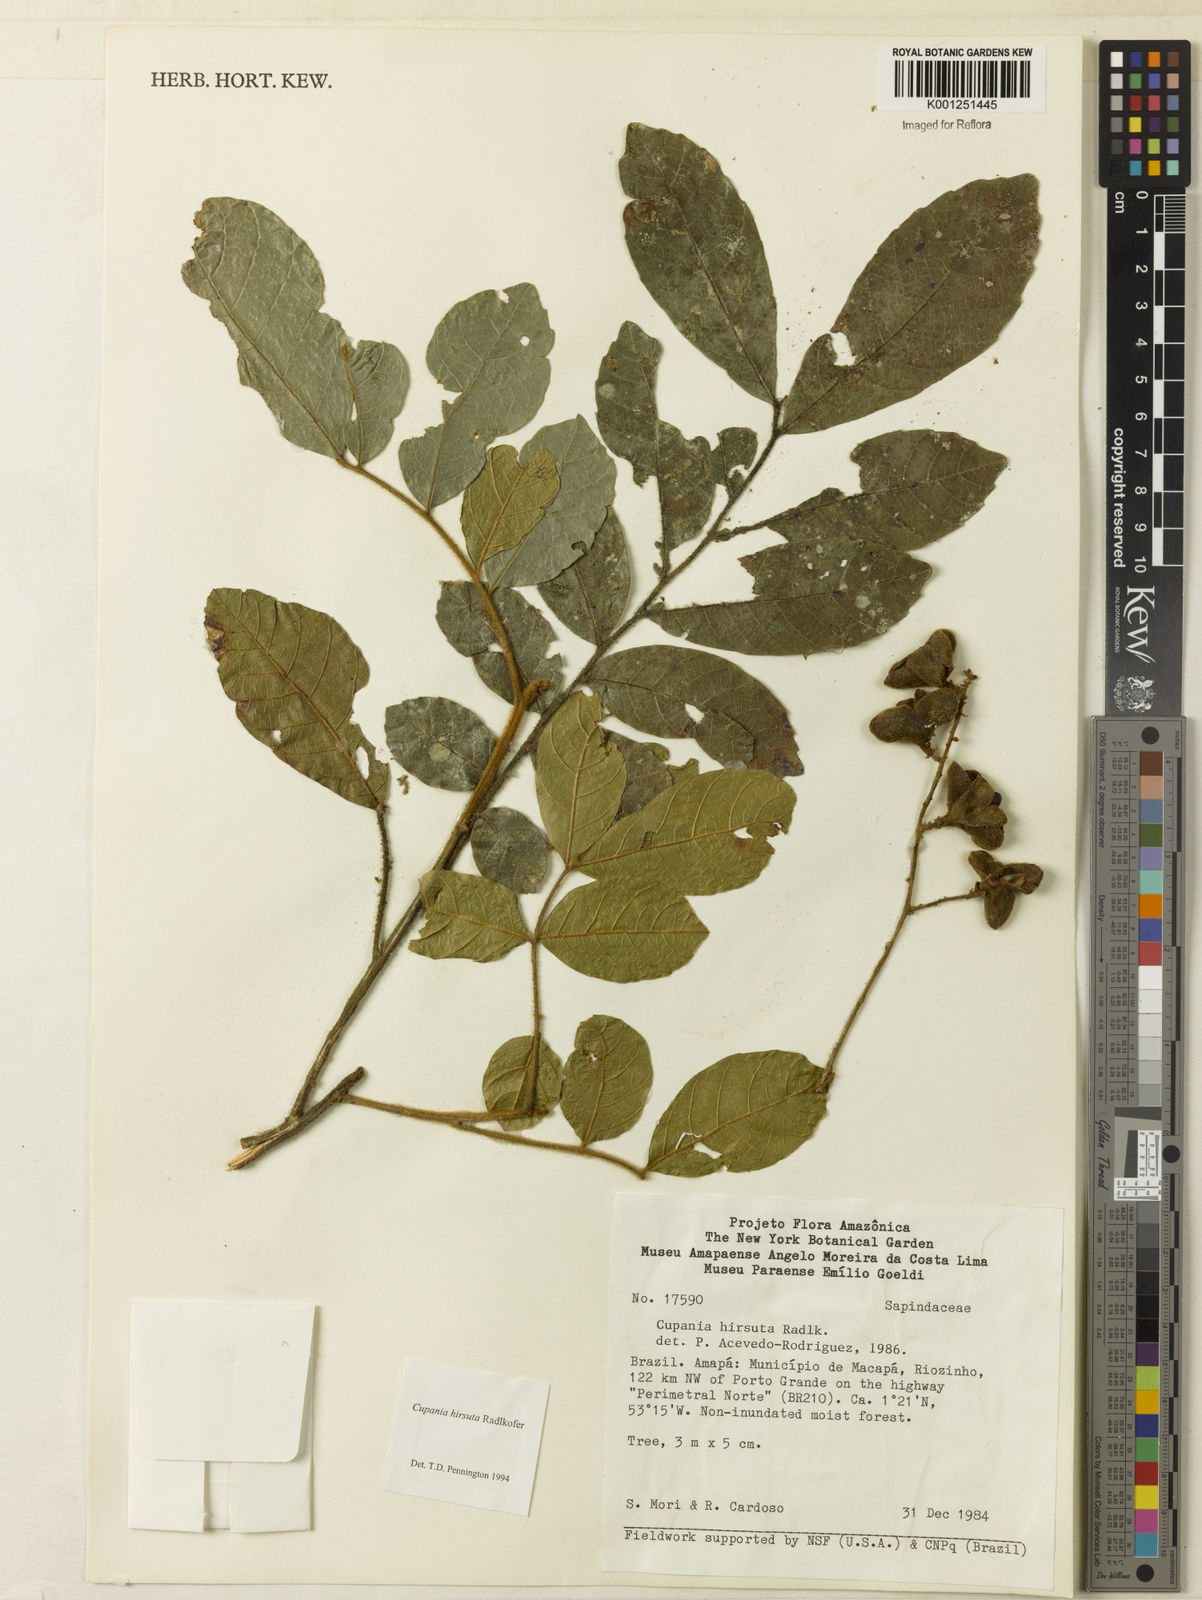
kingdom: Plantae
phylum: Tracheophyta
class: Magnoliopsida
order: Sapindales
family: Sapindaceae
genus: Cupania
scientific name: Cupania hirsuta
